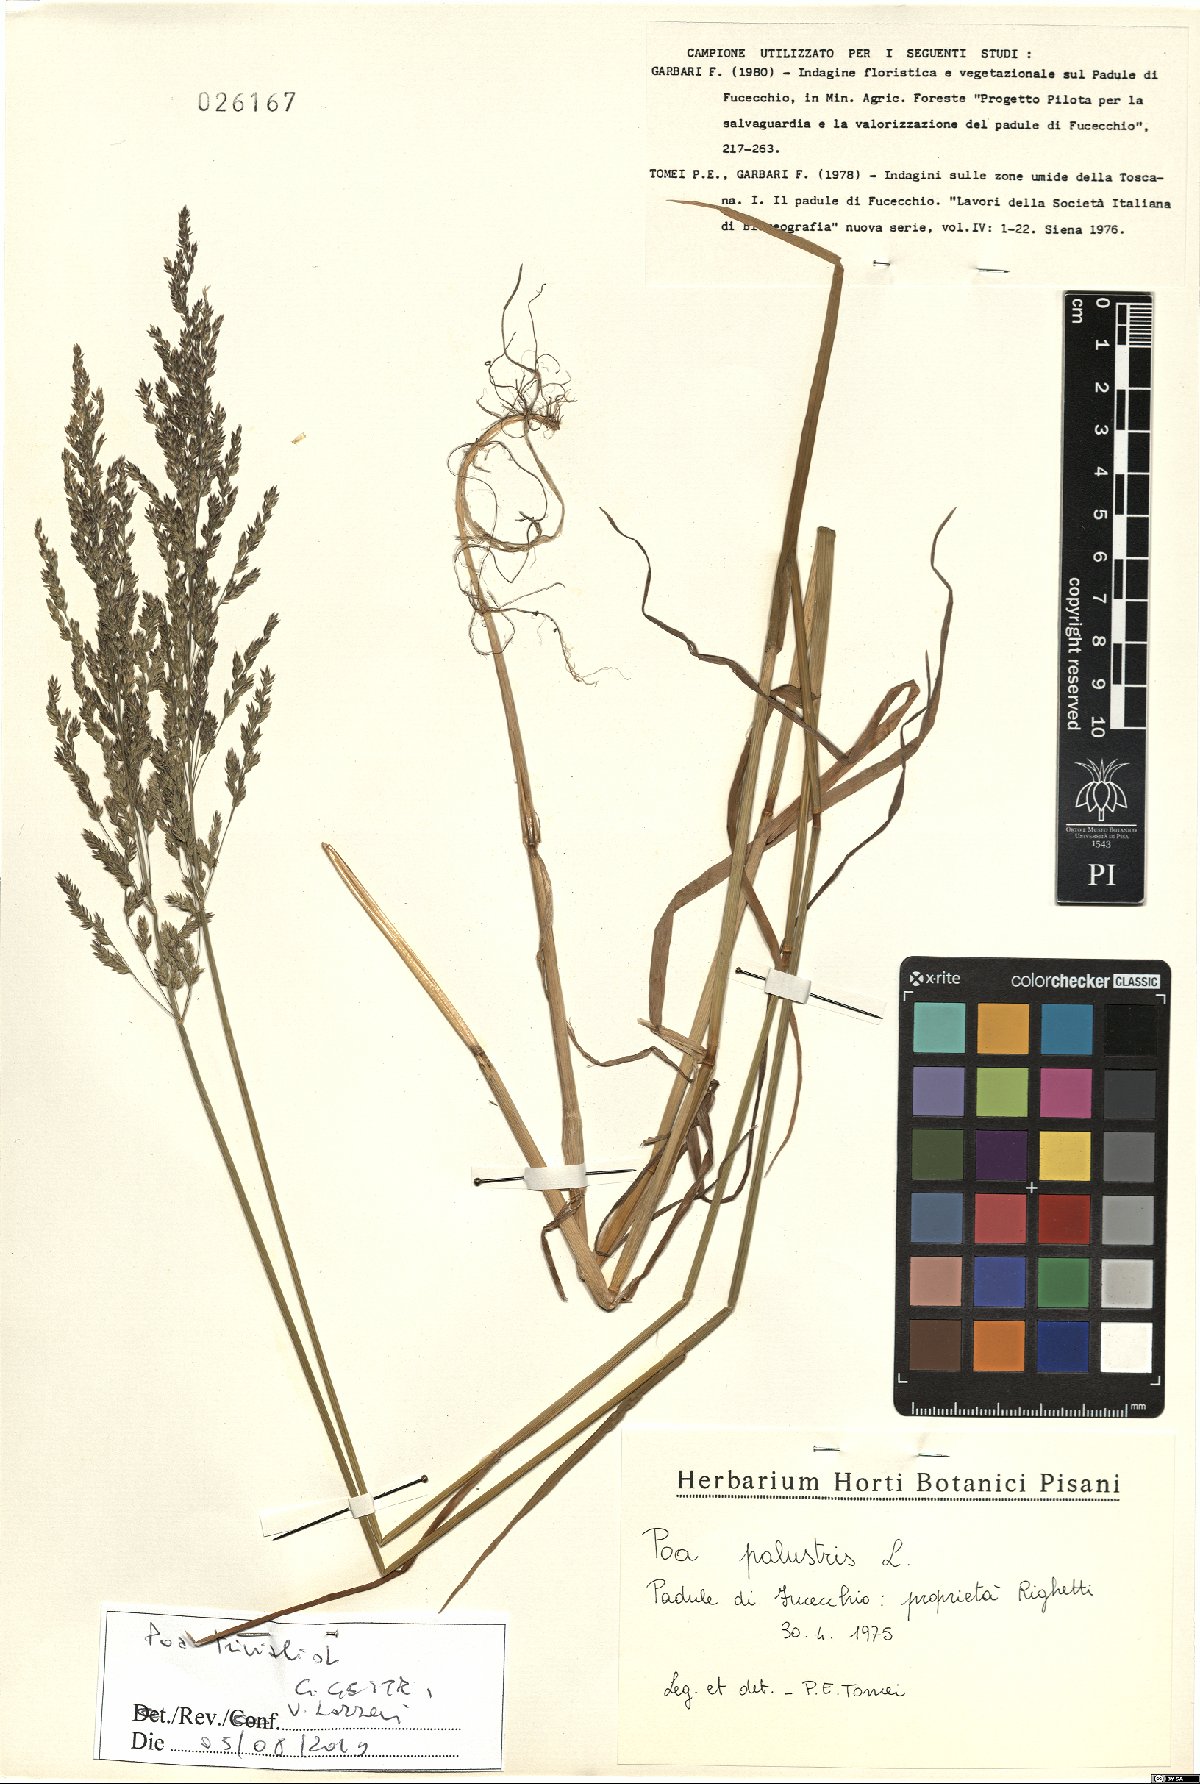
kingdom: Plantae
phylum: Tracheophyta
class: Liliopsida
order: Poales
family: Poaceae
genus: Poa
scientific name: Poa trivialis
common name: Rough bluegrass
